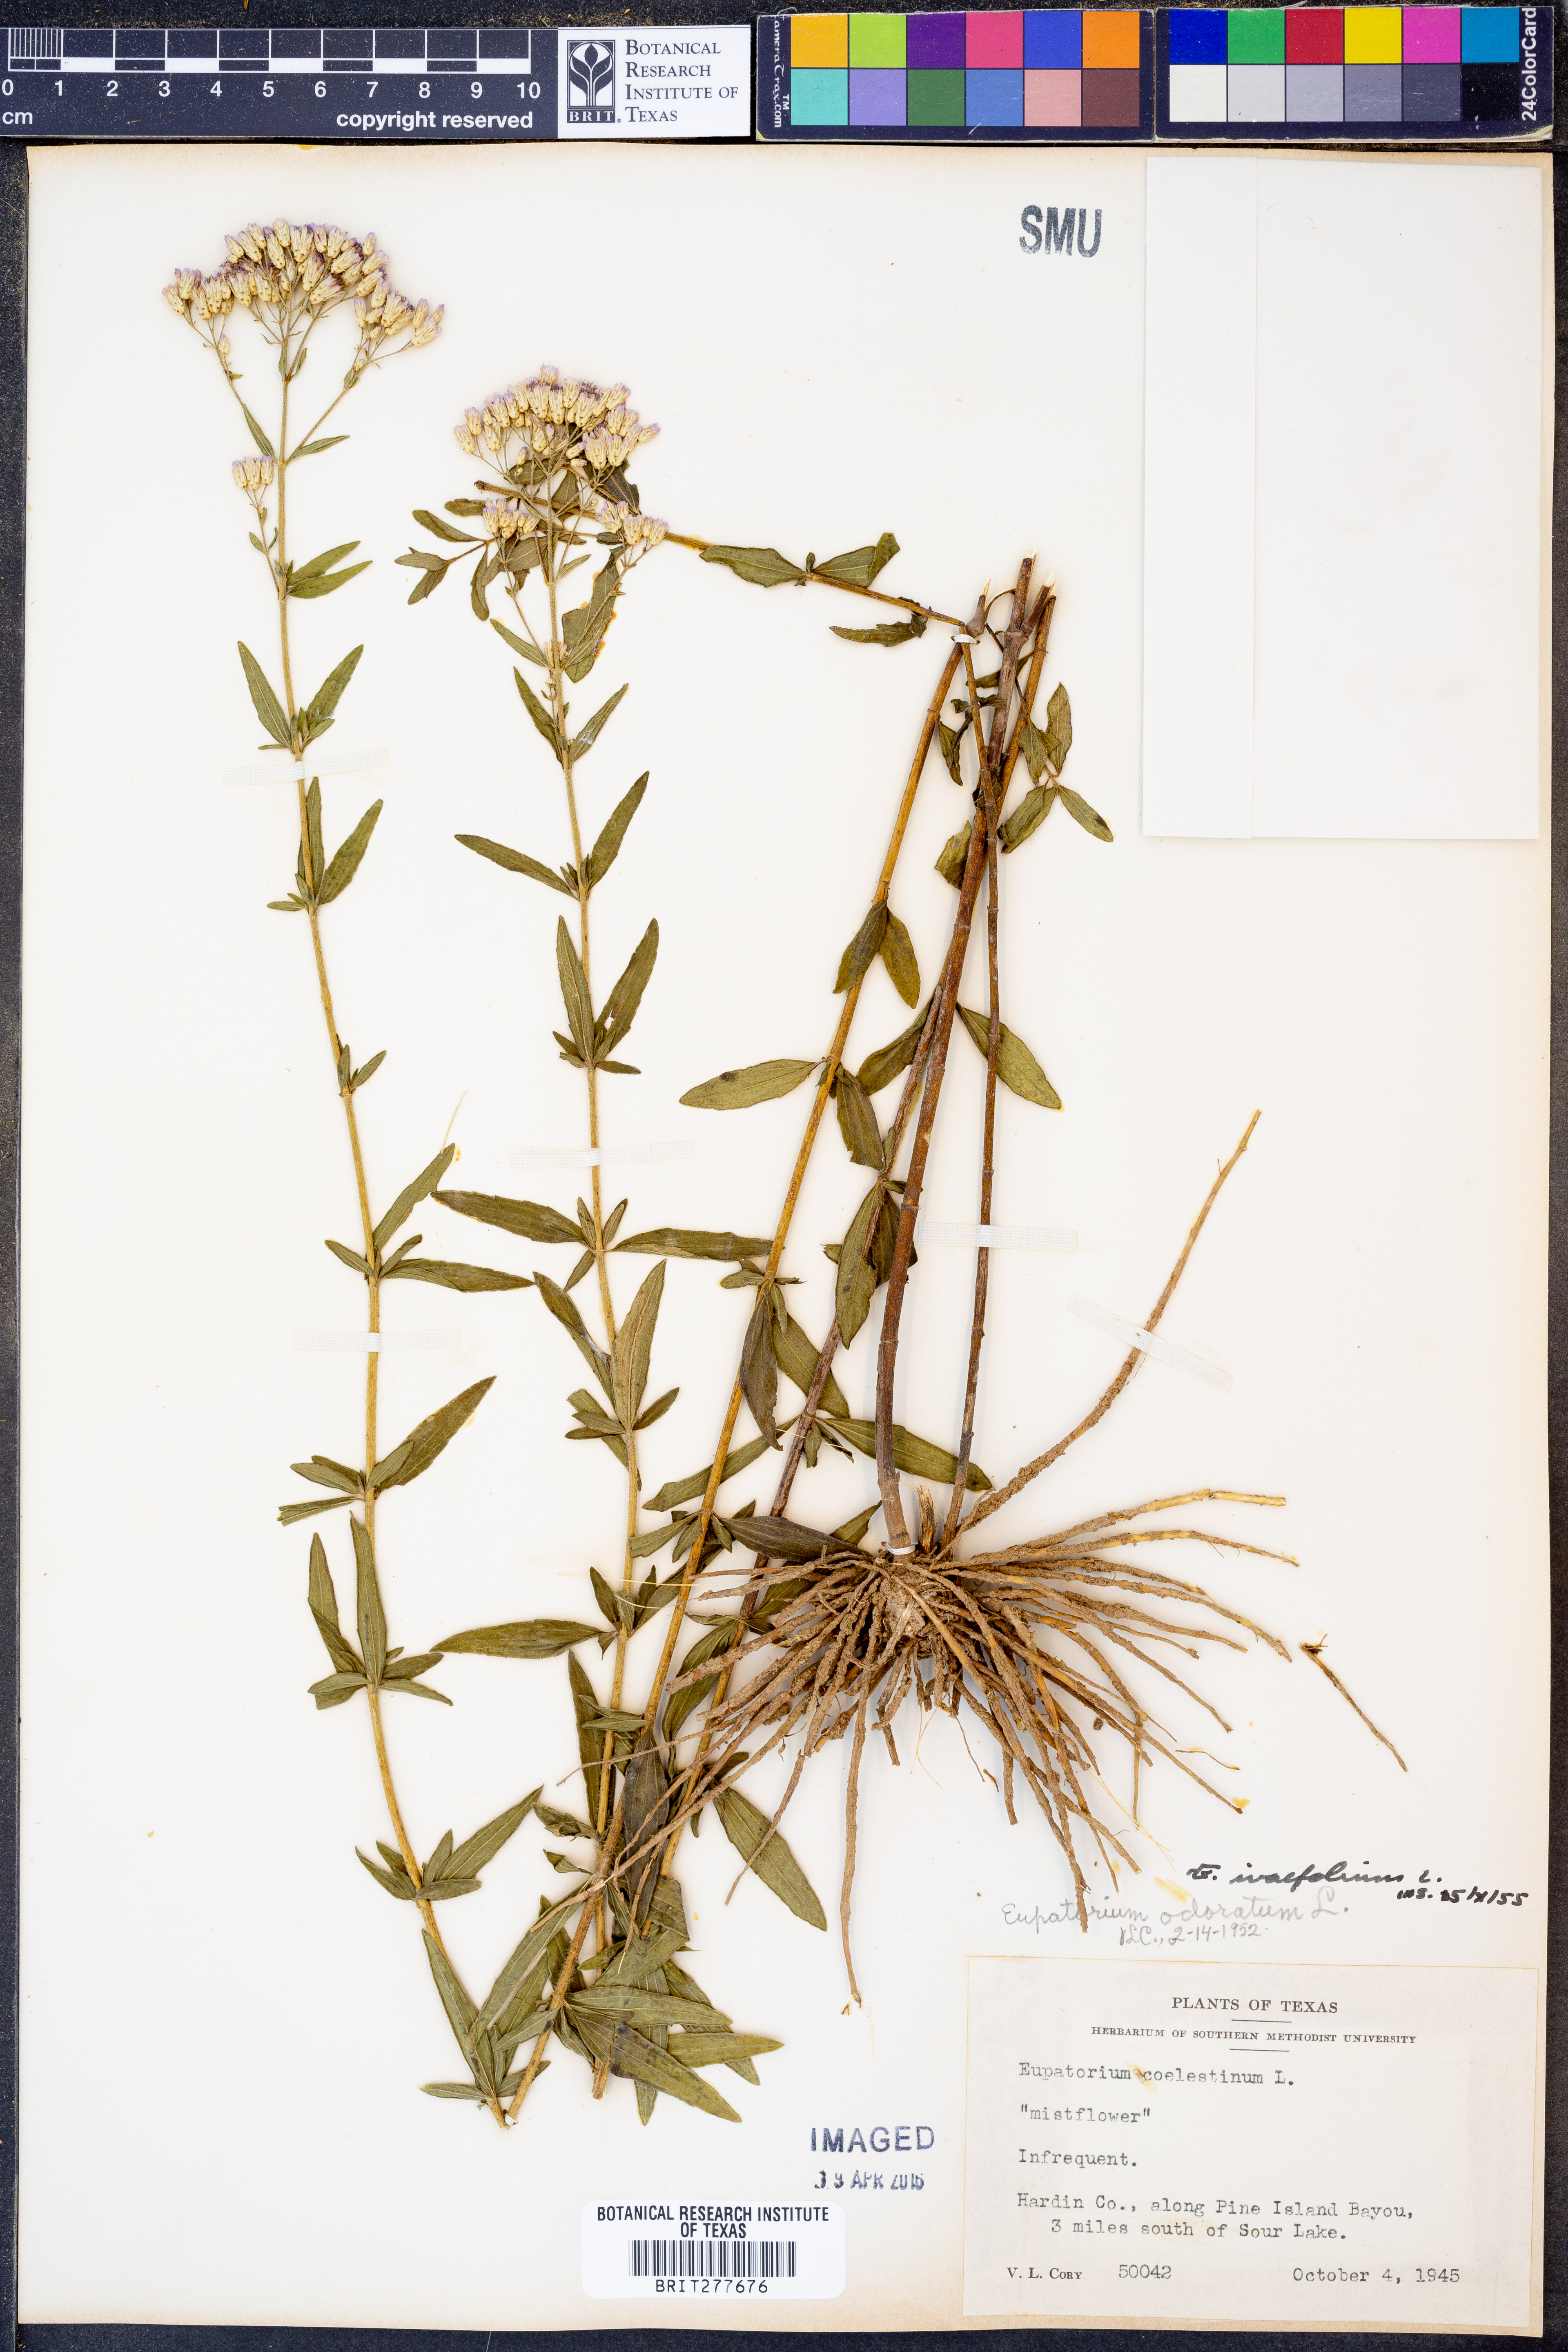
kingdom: Plantae
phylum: Tracheophyta
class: Magnoliopsida
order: Asterales
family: Asteraceae
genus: Chromolaena
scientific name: Chromolaena ivaefolia
